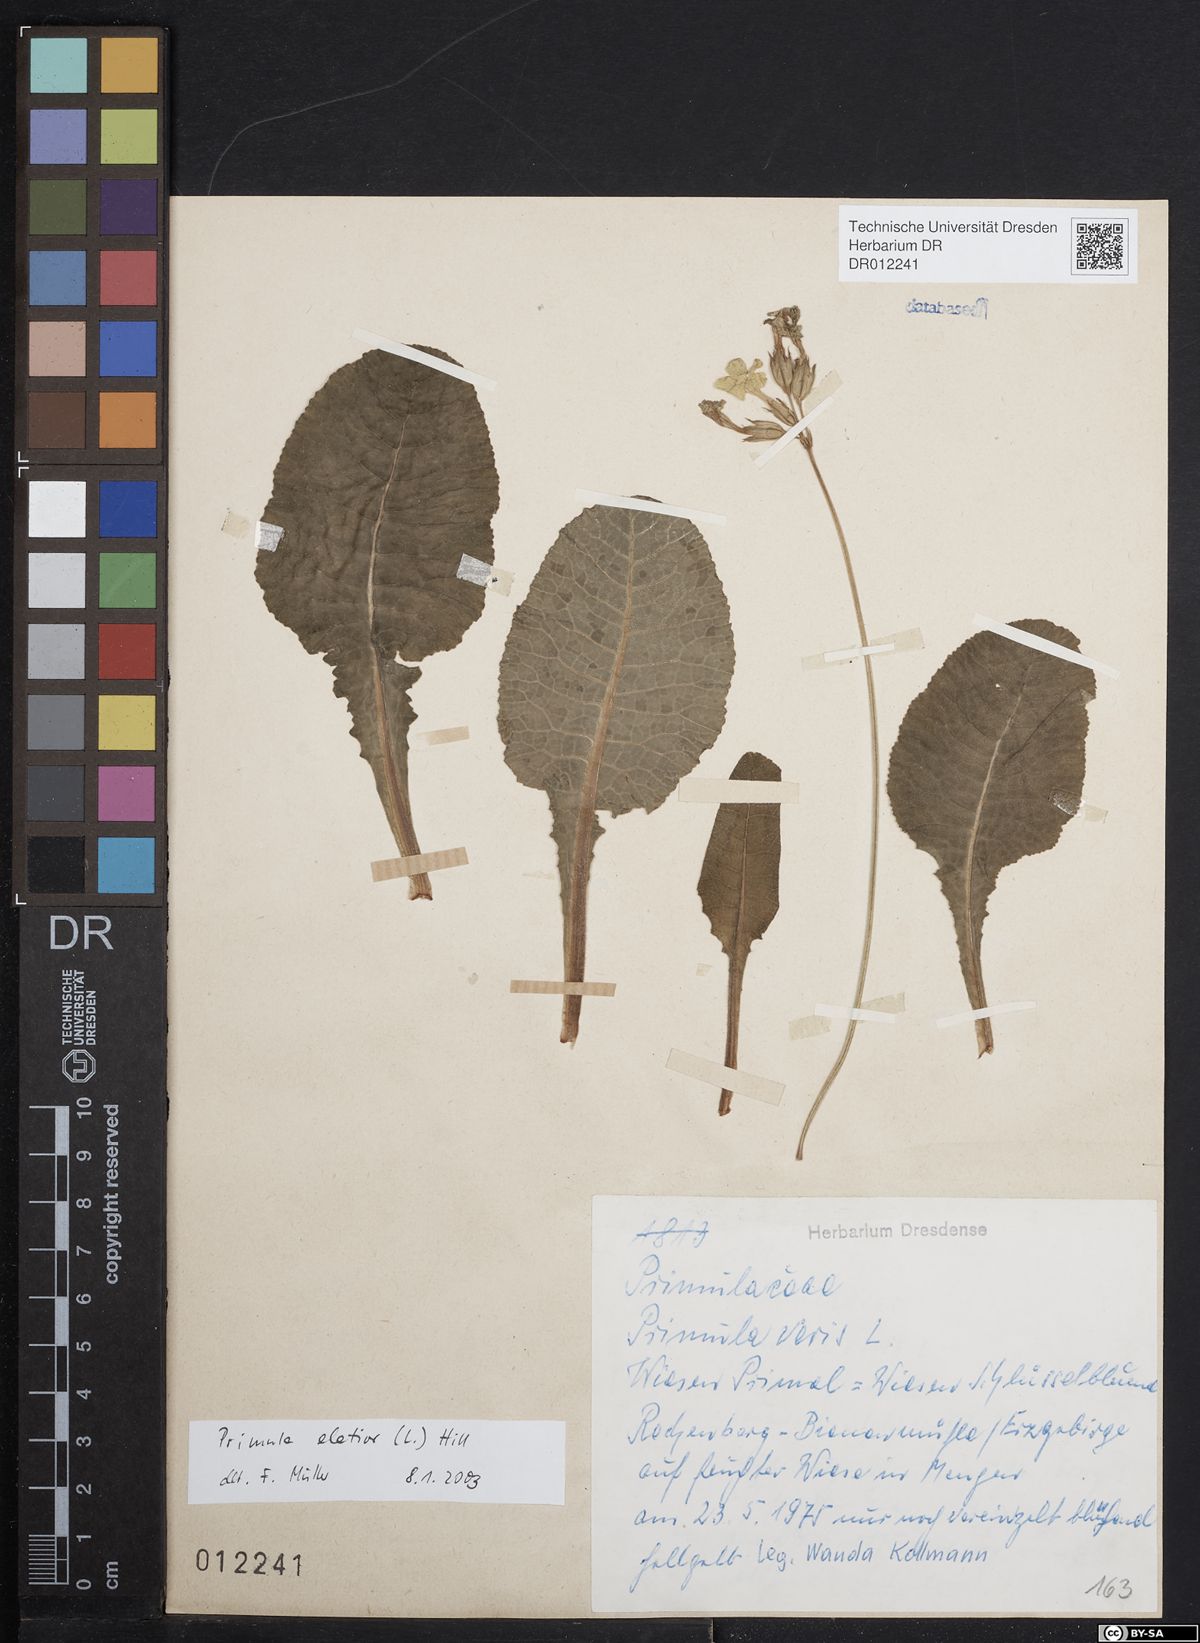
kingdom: Plantae
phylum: Tracheophyta
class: Magnoliopsida
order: Ericales
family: Primulaceae
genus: Primula
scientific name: Primula elatior
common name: Oxlip
